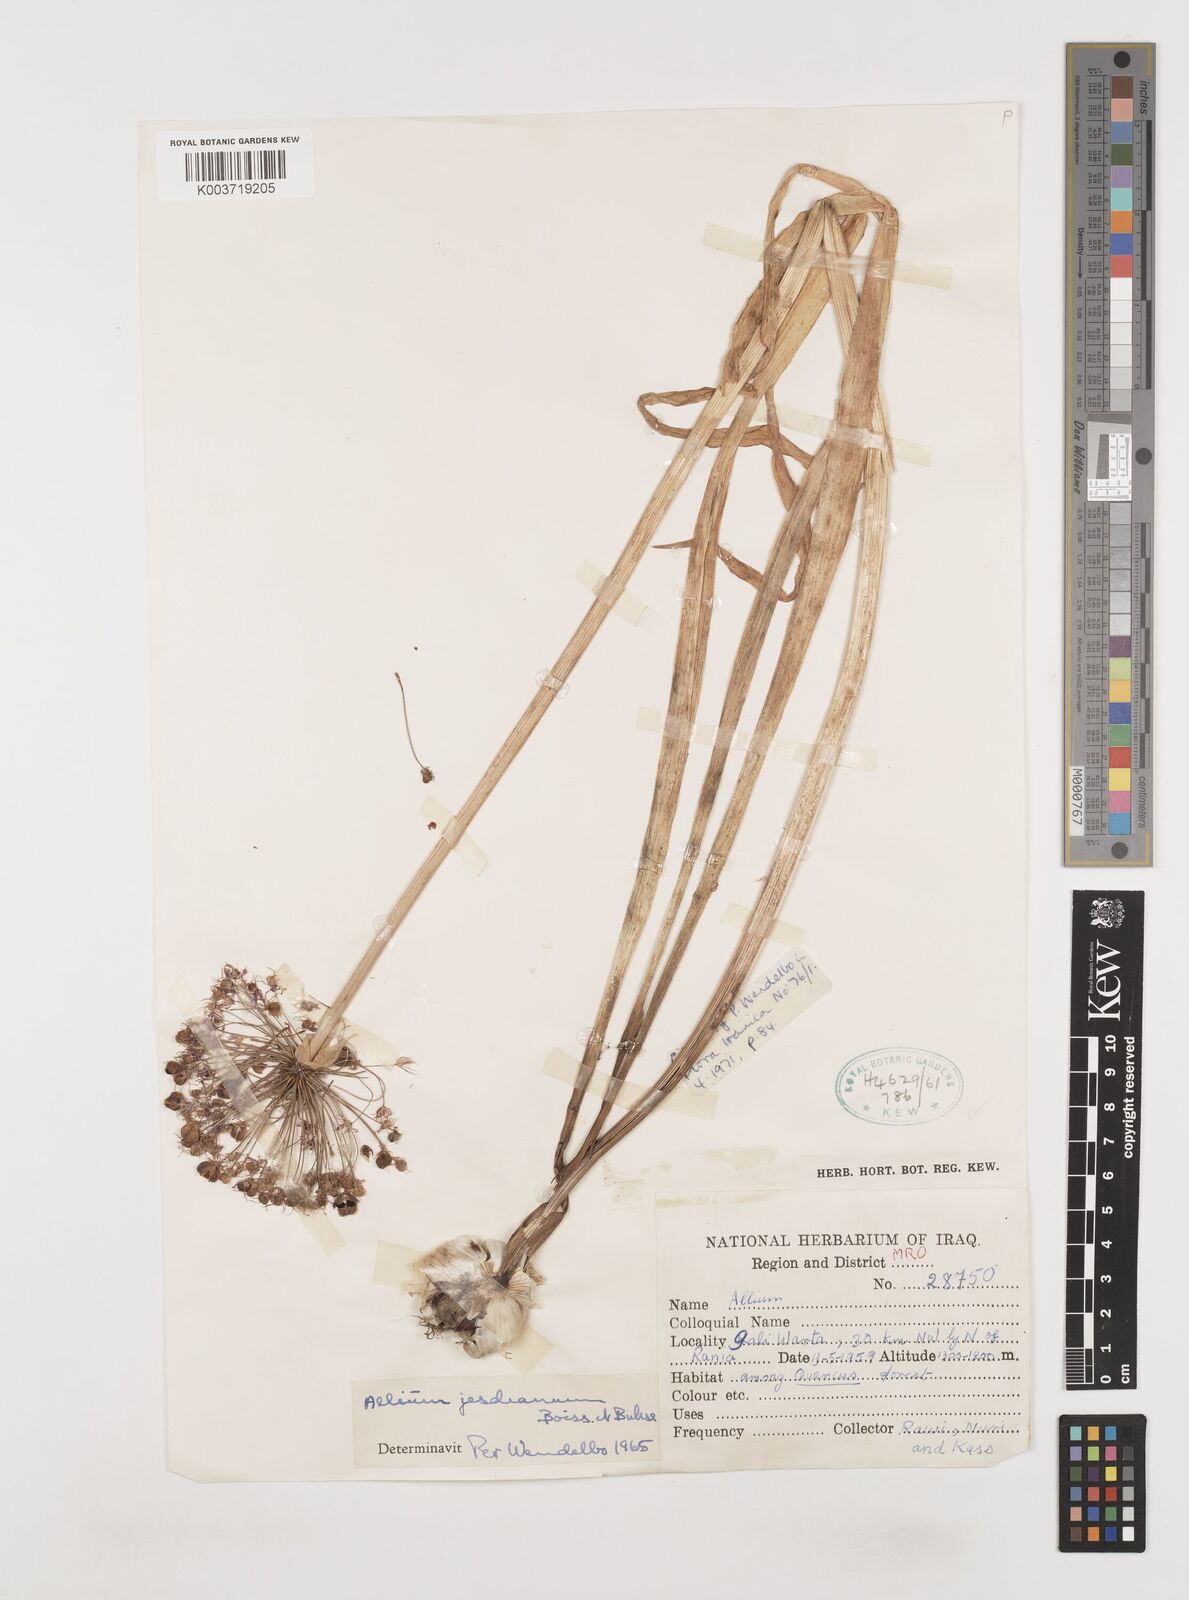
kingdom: Plantae
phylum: Tracheophyta
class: Liliopsida
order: Asparagales
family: Amaryllidaceae
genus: Allium
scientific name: Allium jesdianum
